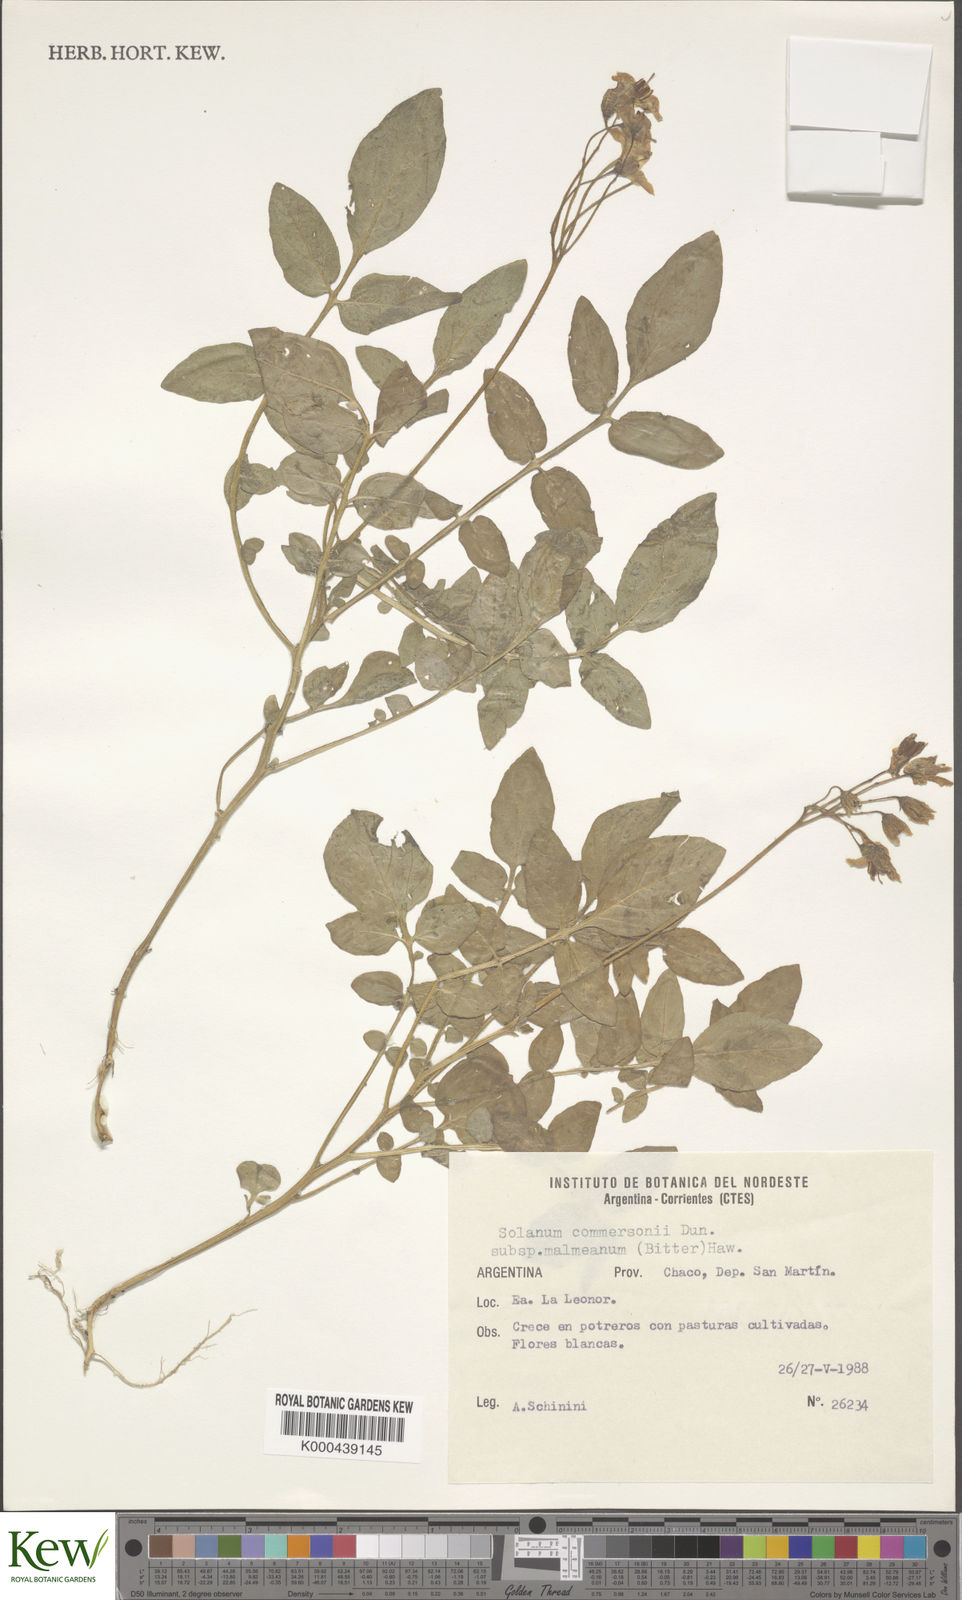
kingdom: Plantae
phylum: Tracheophyta
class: Magnoliopsida
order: Solanales
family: Solanaceae
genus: Solanum
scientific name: Solanum commersonii
